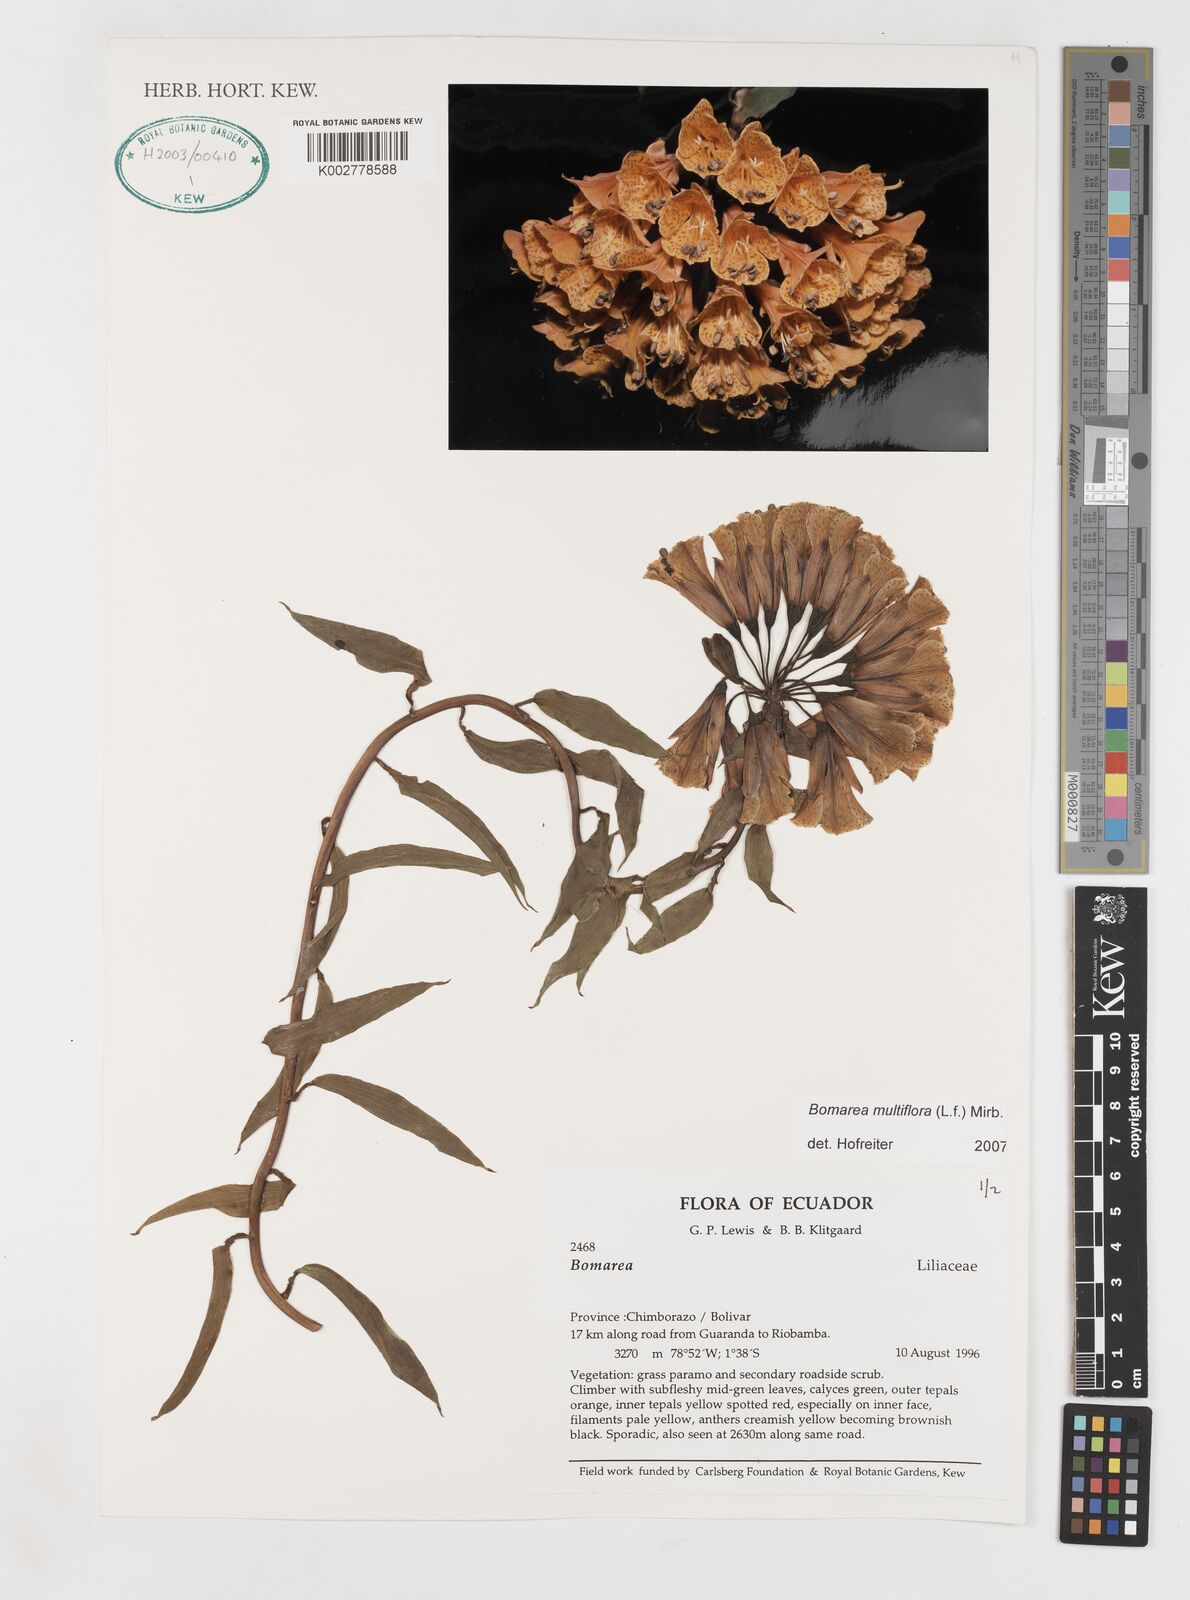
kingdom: Plantae
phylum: Tracheophyta
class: Liliopsida
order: Liliales
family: Alstroemeriaceae
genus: Bomarea
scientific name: Bomarea multiflora
